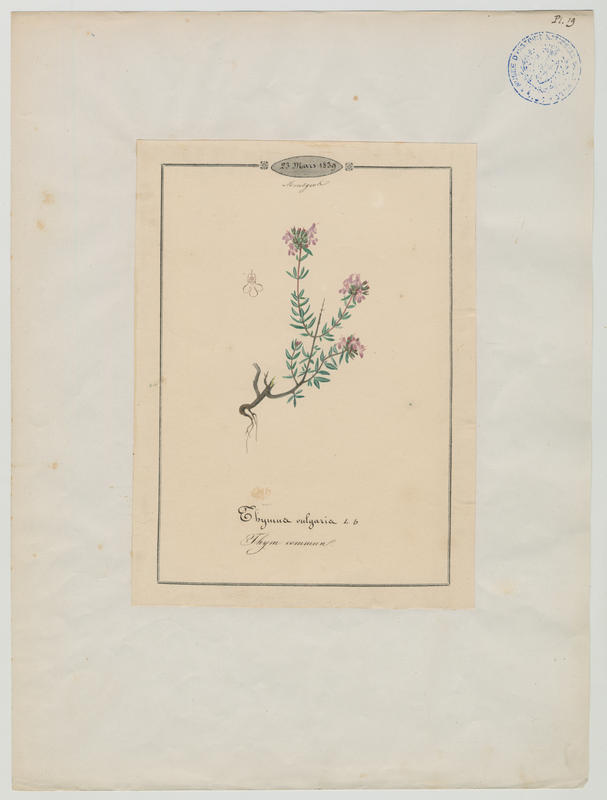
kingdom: Plantae
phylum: Tracheophyta
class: Magnoliopsida
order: Lamiales
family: Lamiaceae
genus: Thymus
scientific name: Thymus vulgaris
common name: Garden thyme
